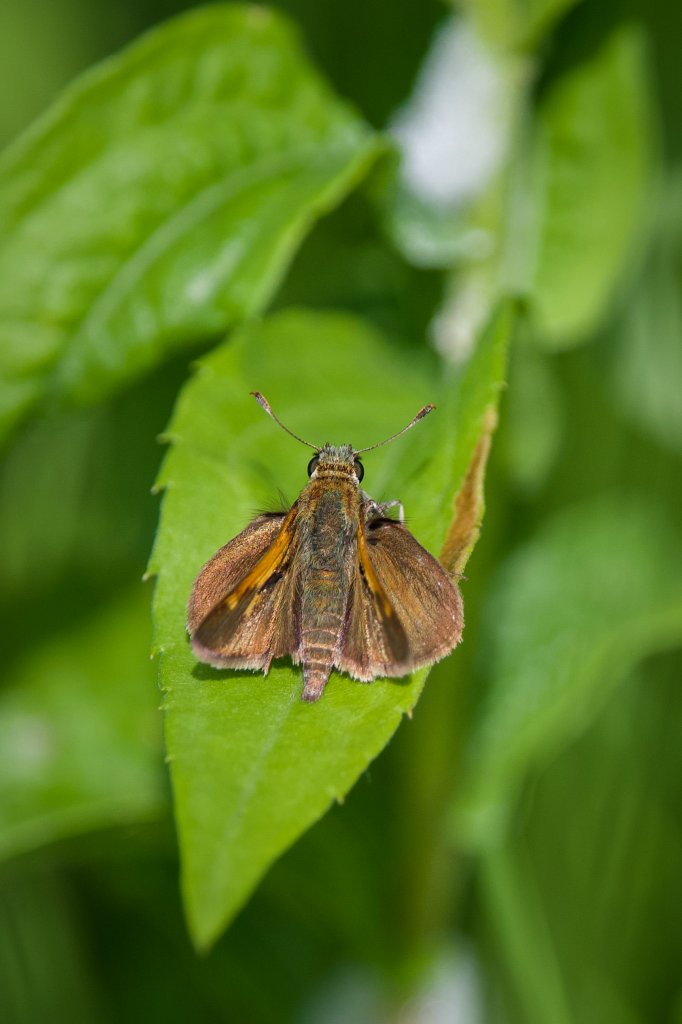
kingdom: Animalia
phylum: Arthropoda
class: Insecta
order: Lepidoptera
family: Hesperiidae
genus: Polites
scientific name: Polites themistocles
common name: Tawny-edged Skipper
